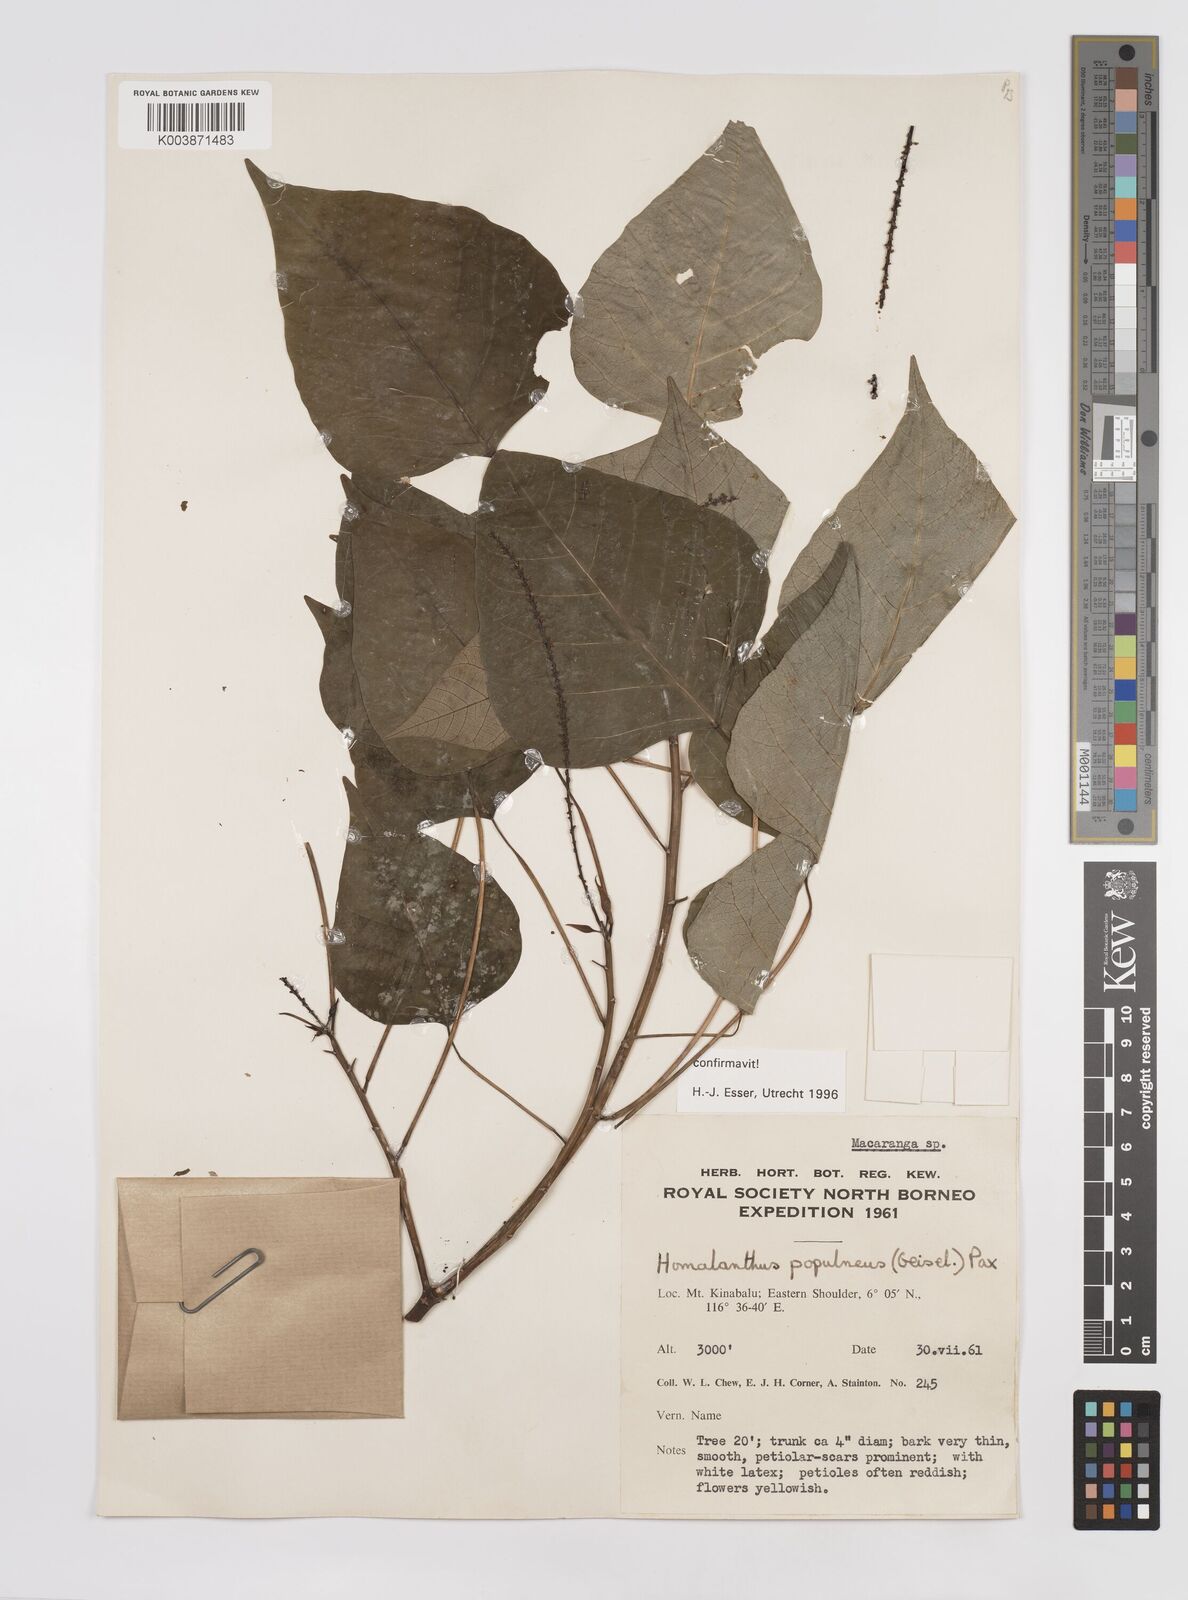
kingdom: Plantae
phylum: Tracheophyta
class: Magnoliopsida
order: Malpighiales
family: Euphorbiaceae
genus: Homalanthus
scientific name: Homalanthus populneus
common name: Spurge
